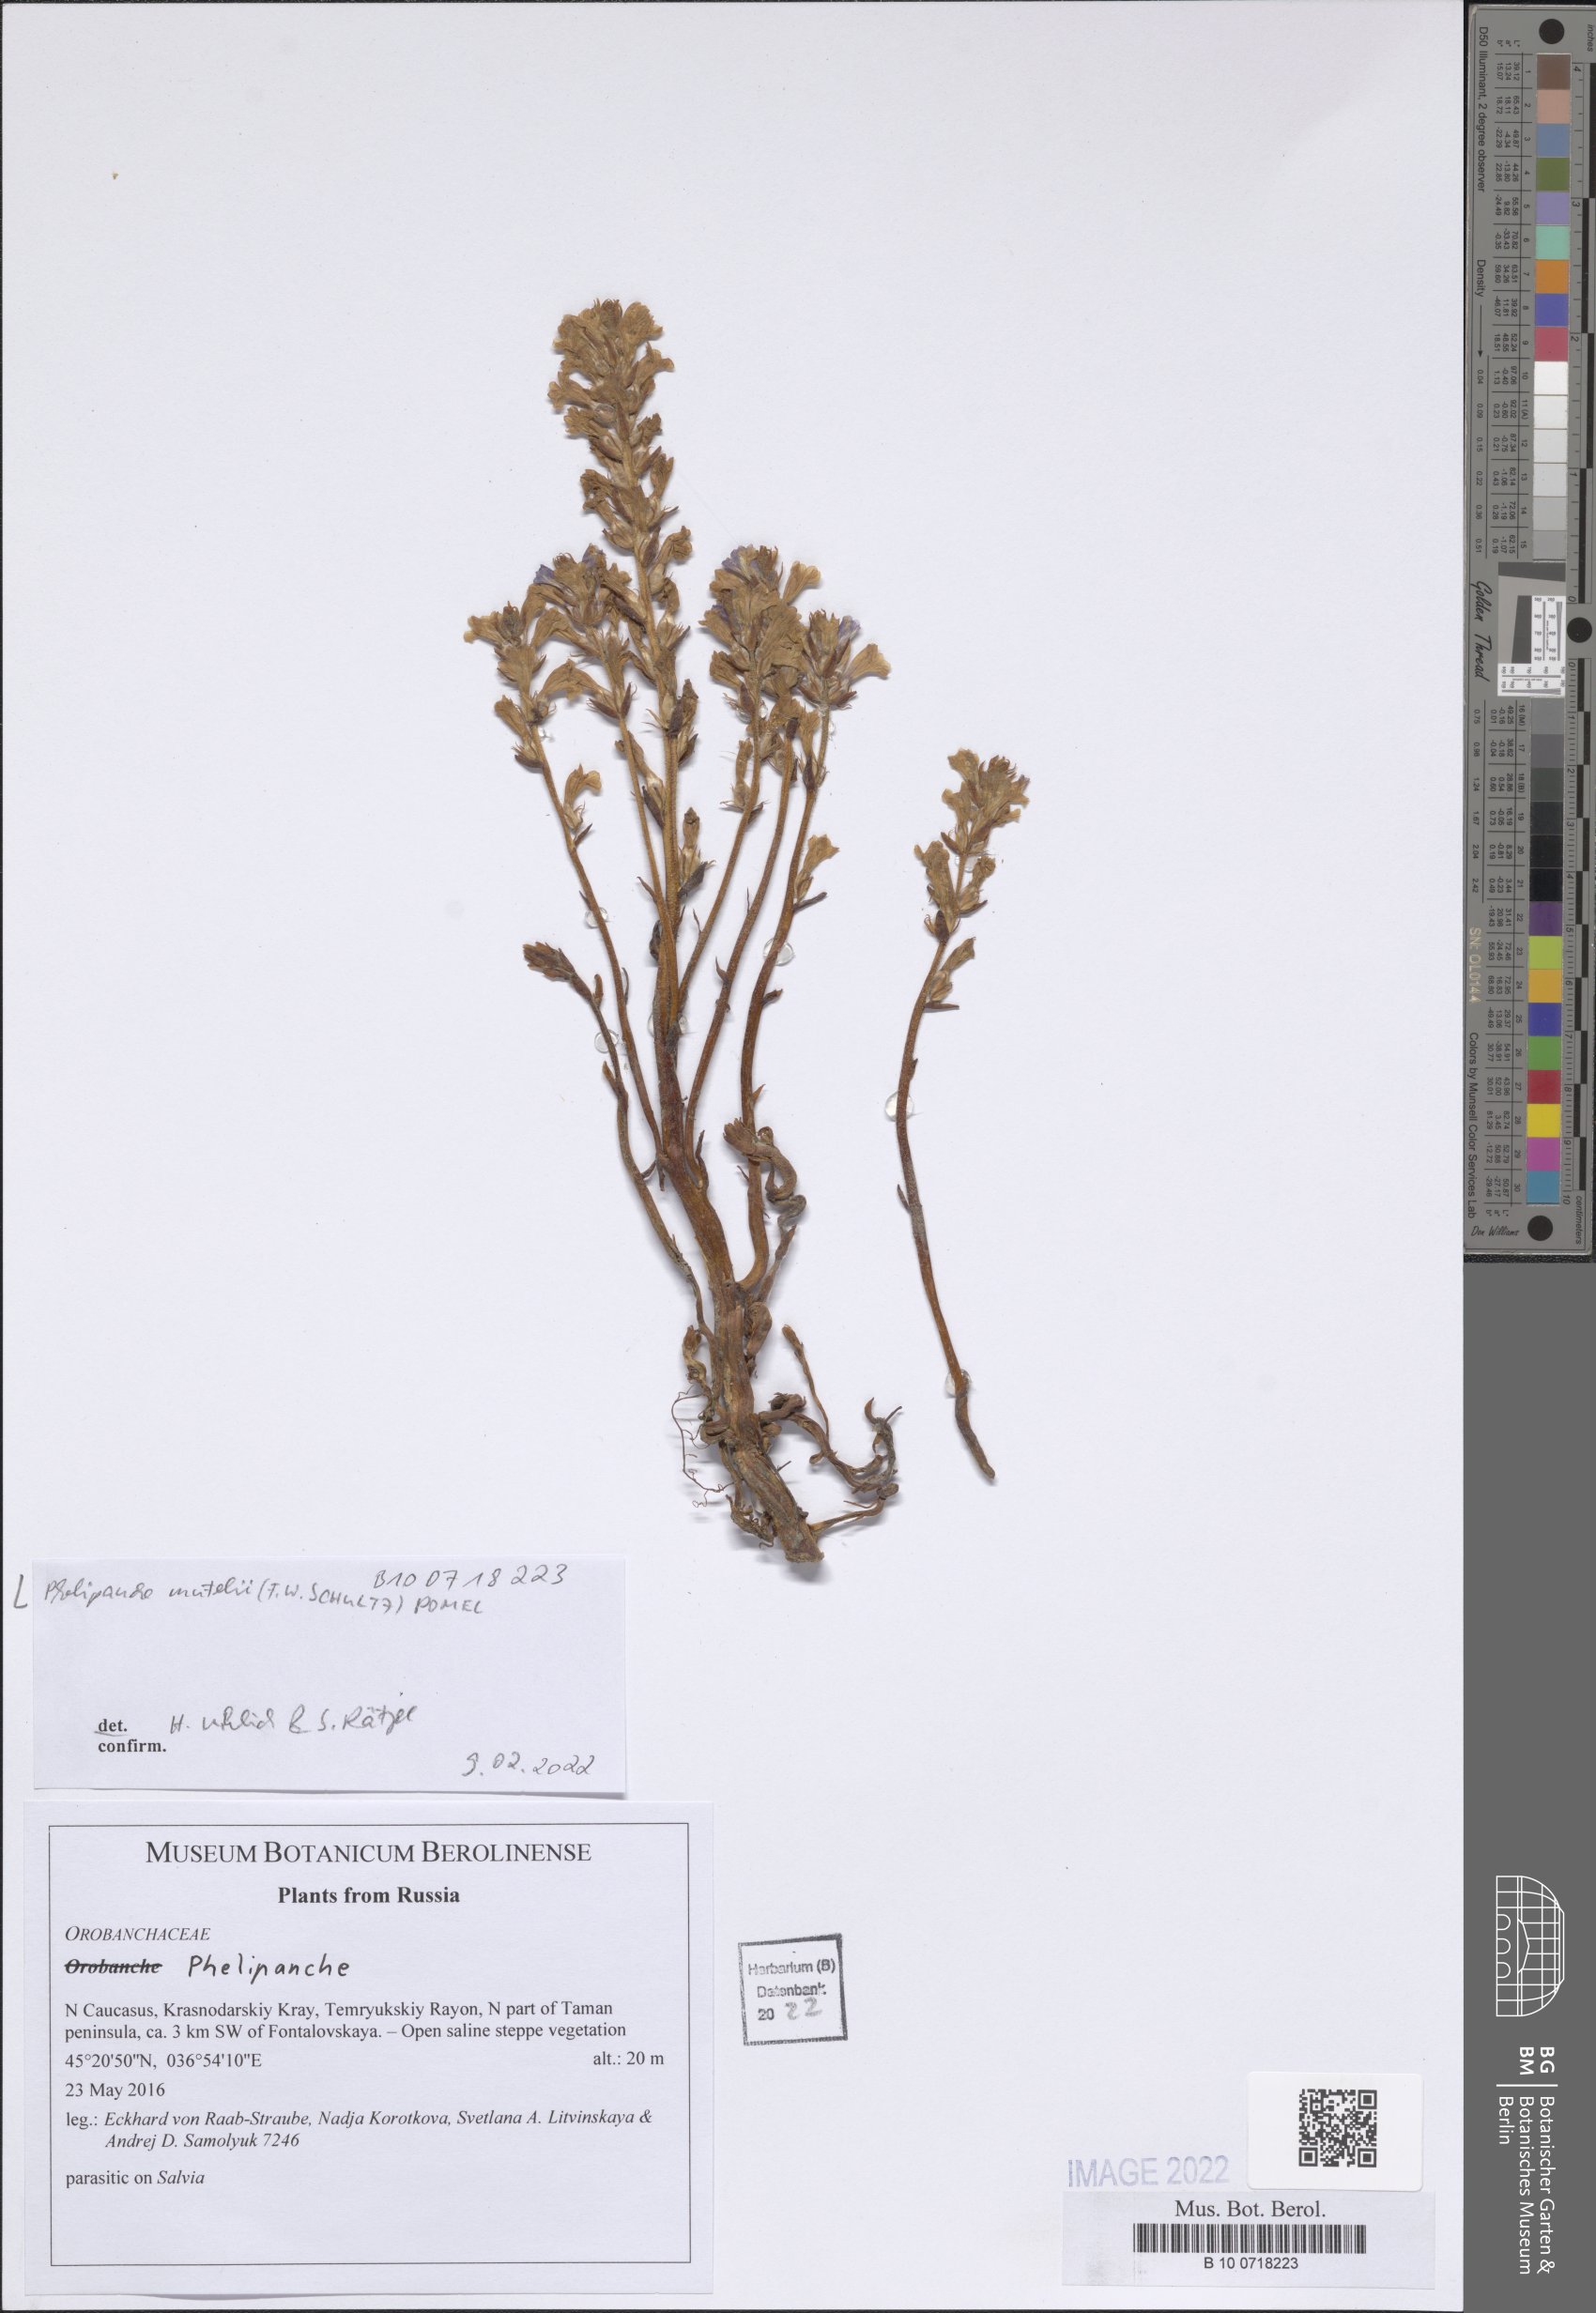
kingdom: Plantae
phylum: Tracheophyta
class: Magnoliopsida
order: Lamiales
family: Orobanchaceae
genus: Phelipanche
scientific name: Phelipanche mutelii
